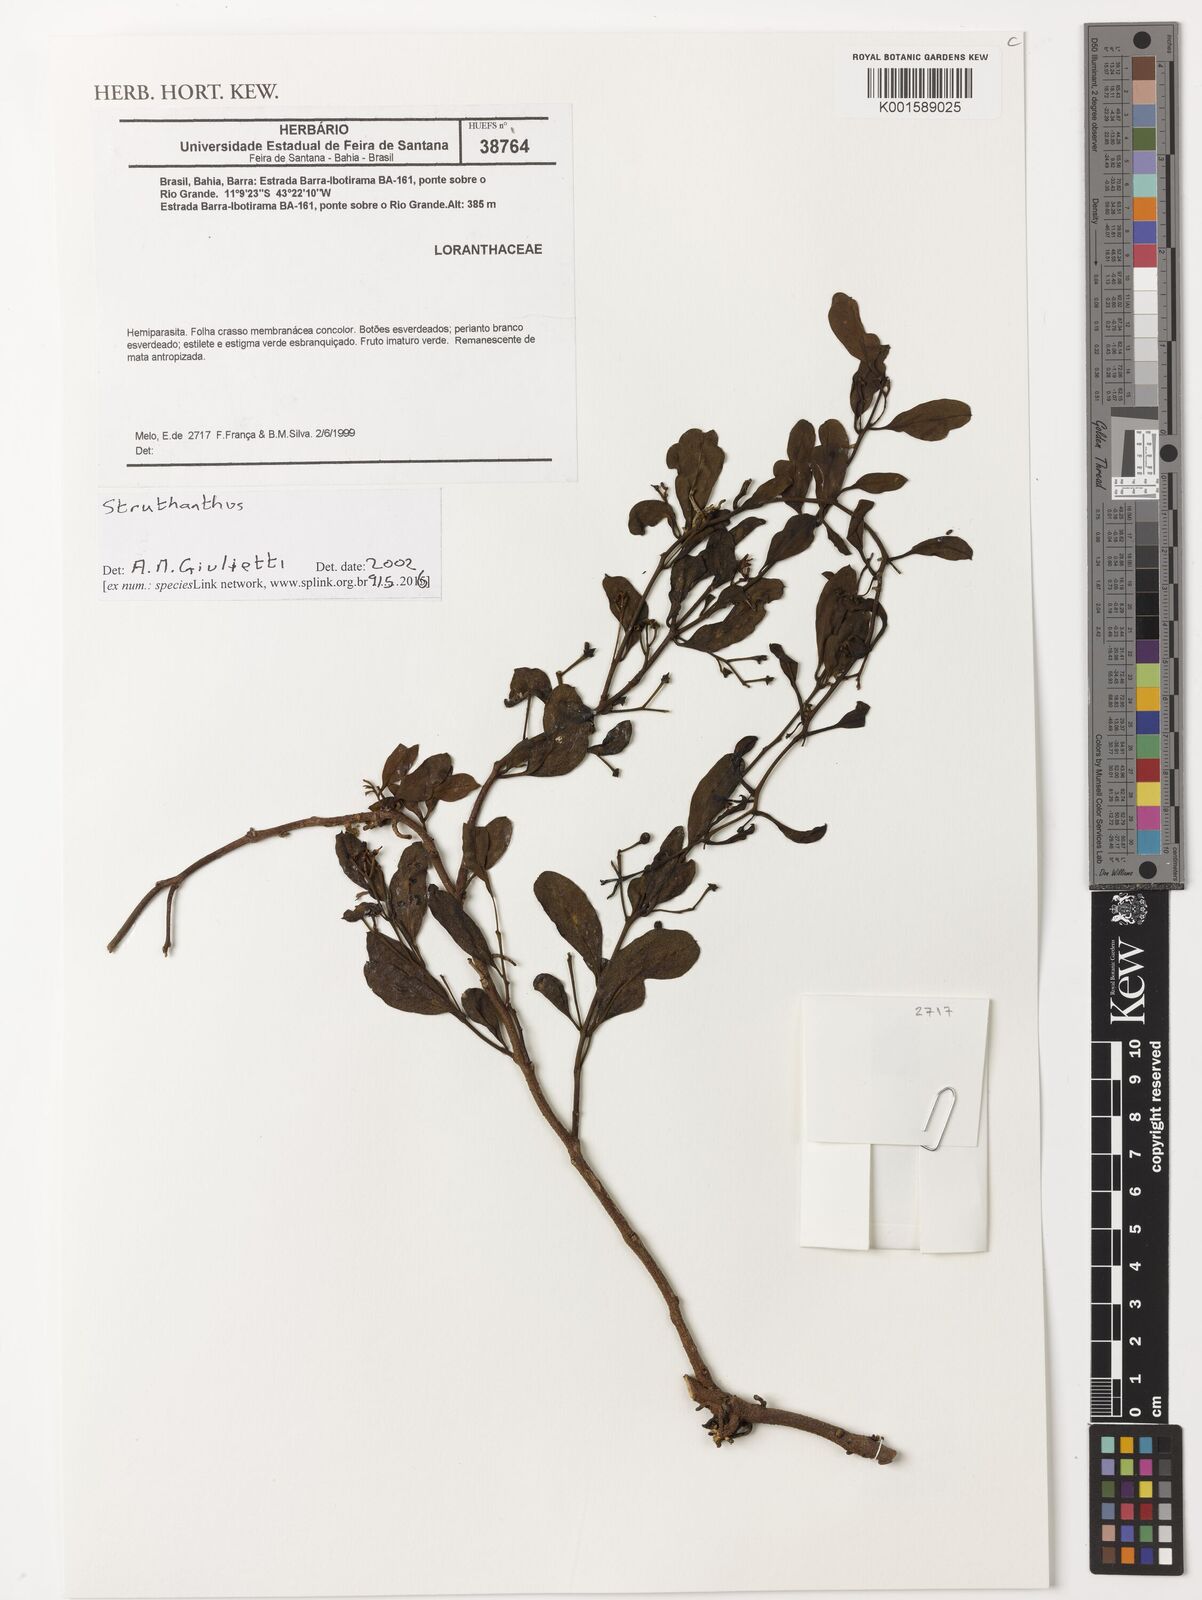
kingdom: Plantae
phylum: Tracheophyta
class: Magnoliopsida
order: Santalales
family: Loranthaceae
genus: Struthanthus
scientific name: Struthanthus
